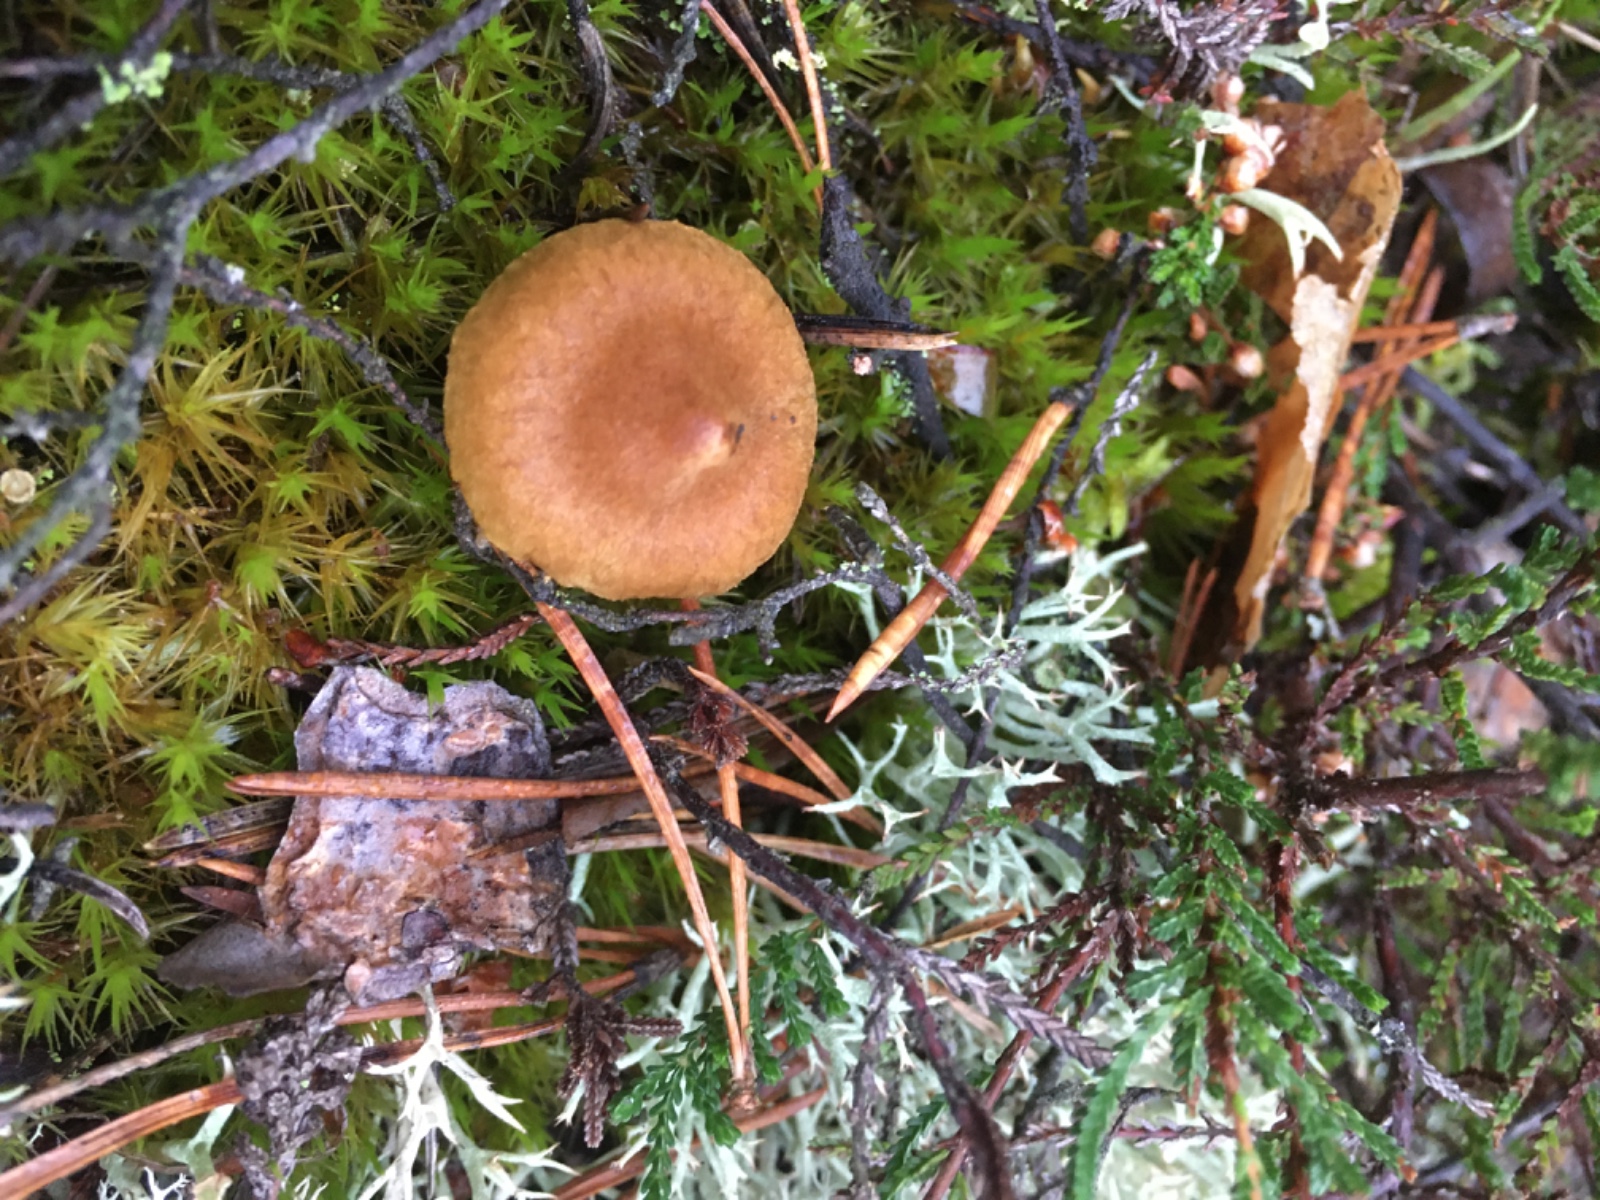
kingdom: Fungi
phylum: Basidiomycota
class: Agaricomycetes
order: Agaricales
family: Cortinariaceae
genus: Cortinarius
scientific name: Cortinarius
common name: gulbladet slørhat
